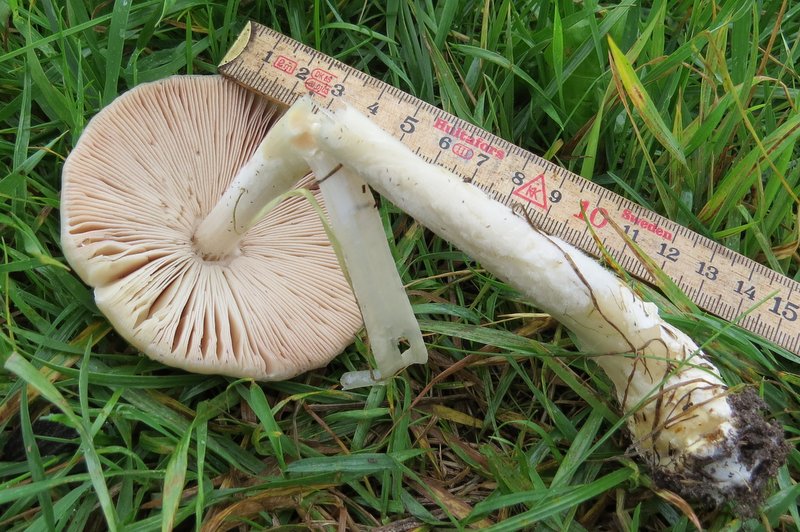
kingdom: Fungi
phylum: Basidiomycota
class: Agaricomycetes
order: Agaricales
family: Pluteaceae
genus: Volvopluteus
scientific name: Volvopluteus gloiocephalus
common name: høj posesvamp
